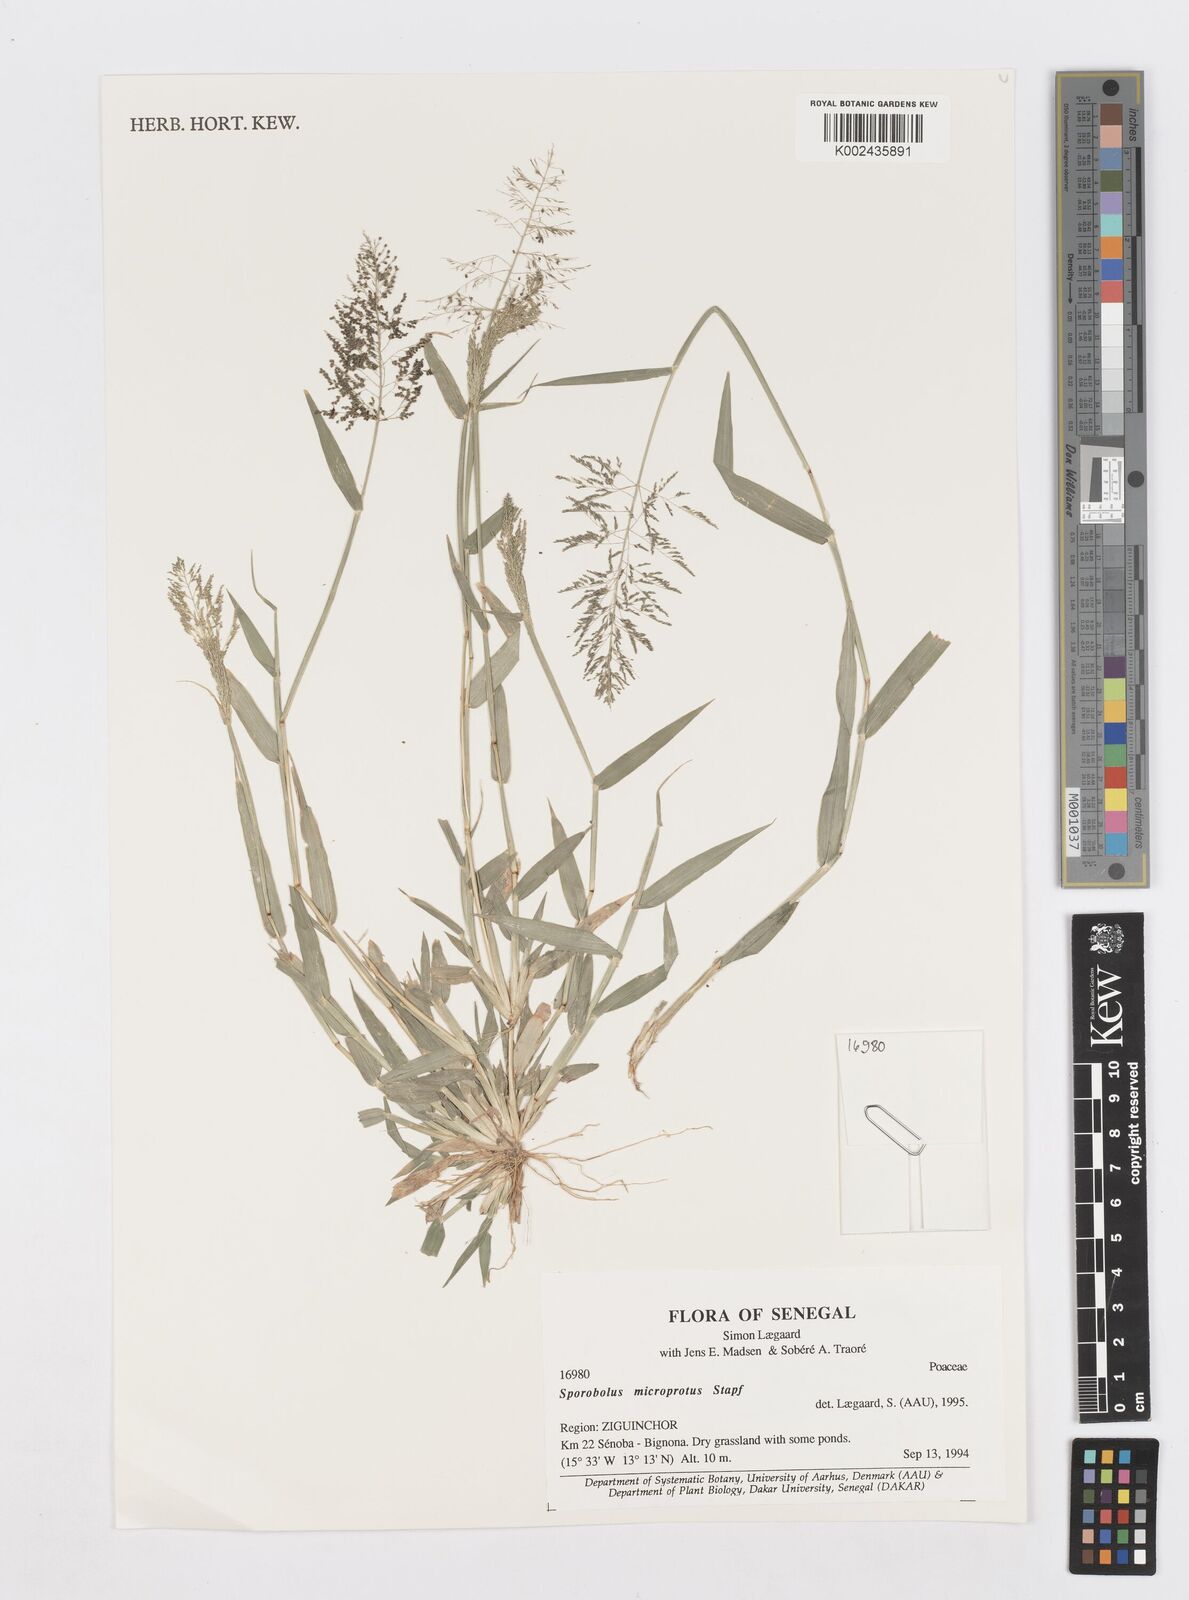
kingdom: Plantae
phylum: Tracheophyta
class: Liliopsida
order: Poales
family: Poaceae
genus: Sporobolus
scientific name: Sporobolus microprotus
